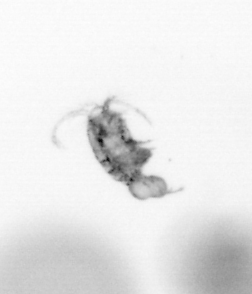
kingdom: Animalia
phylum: Arthropoda
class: Copepoda
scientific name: Copepoda
